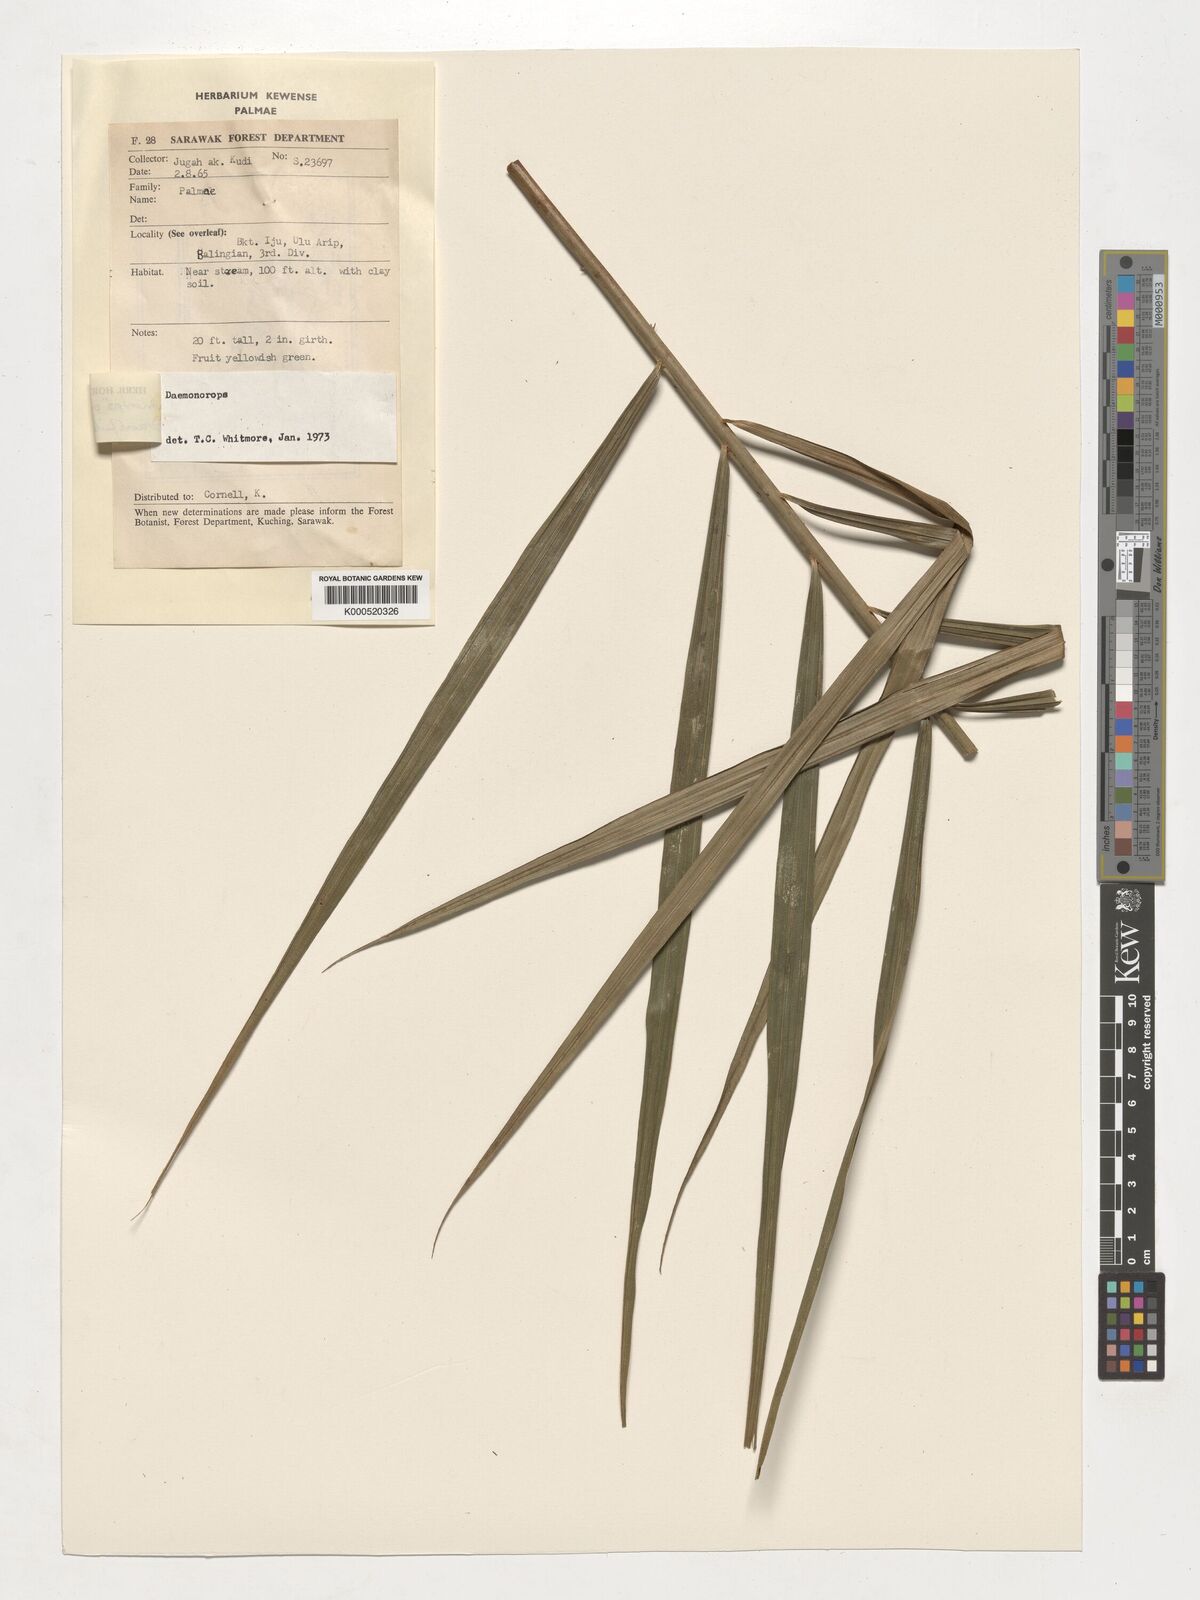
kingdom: Plantae
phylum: Tracheophyta
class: Liliopsida
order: Arecales
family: Arecaceae
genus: Calamus
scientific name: Calamus geniculatus
